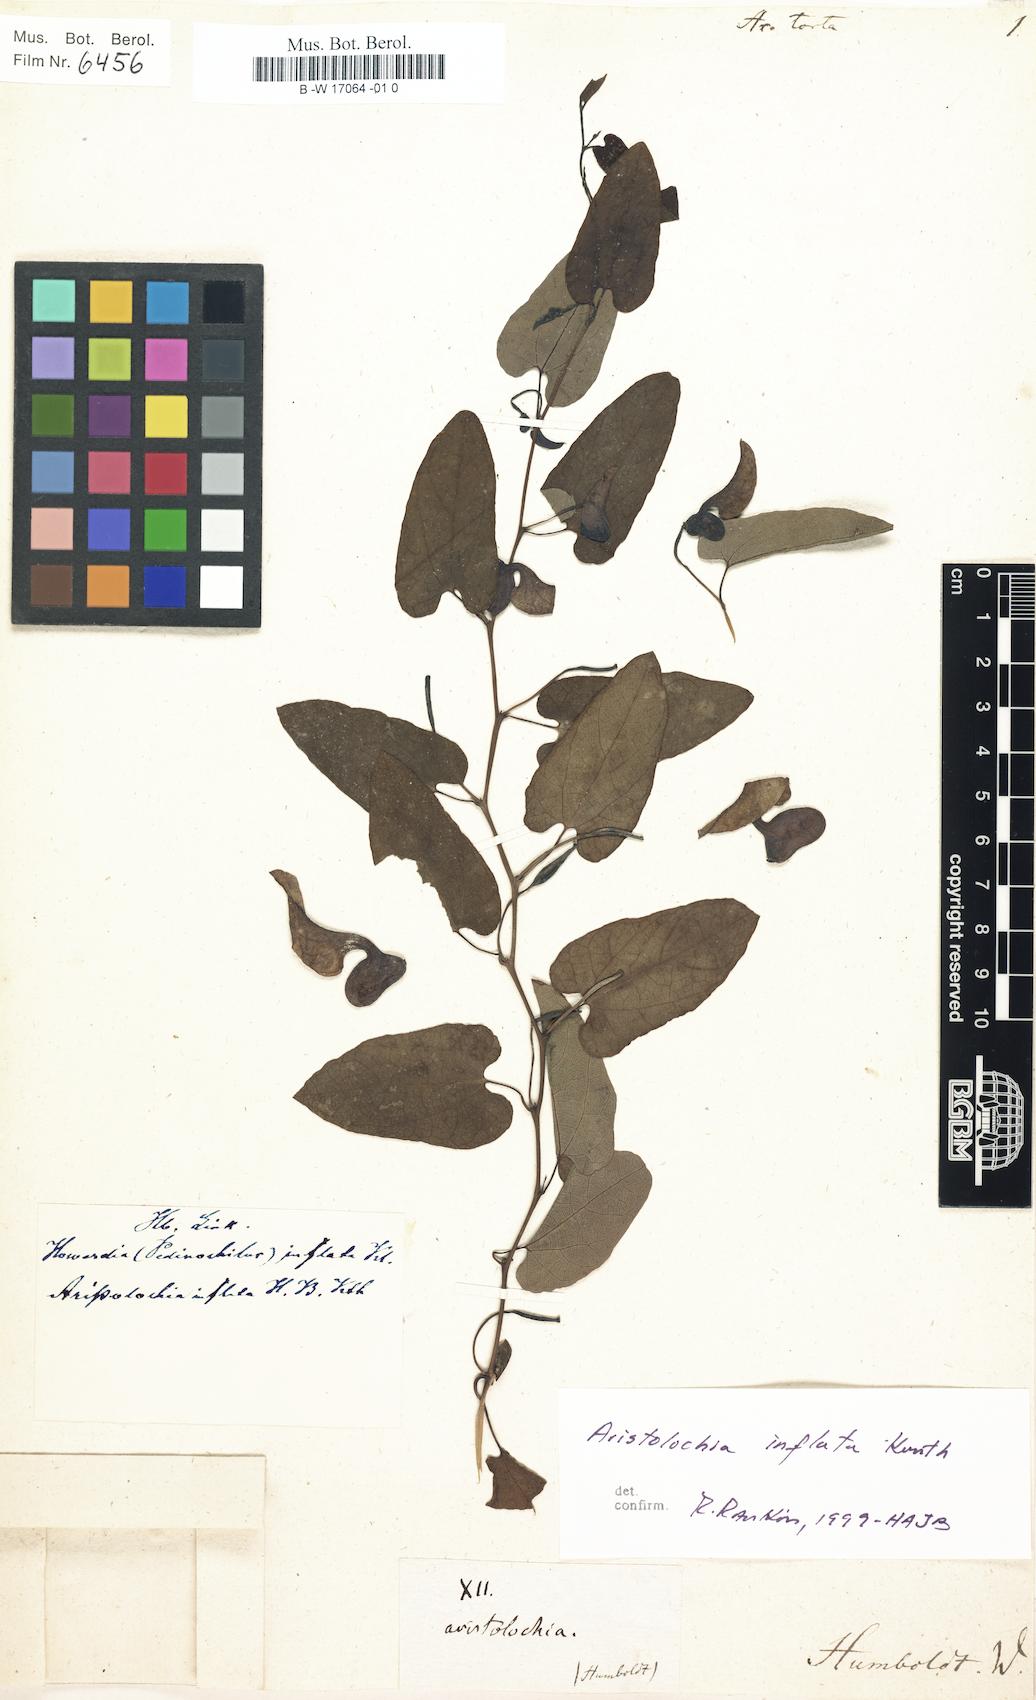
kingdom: Plantae
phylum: Tracheophyta
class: Magnoliopsida
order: Piperales
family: Aristolochiaceae
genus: Aristolochia
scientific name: Aristolochia inflata
